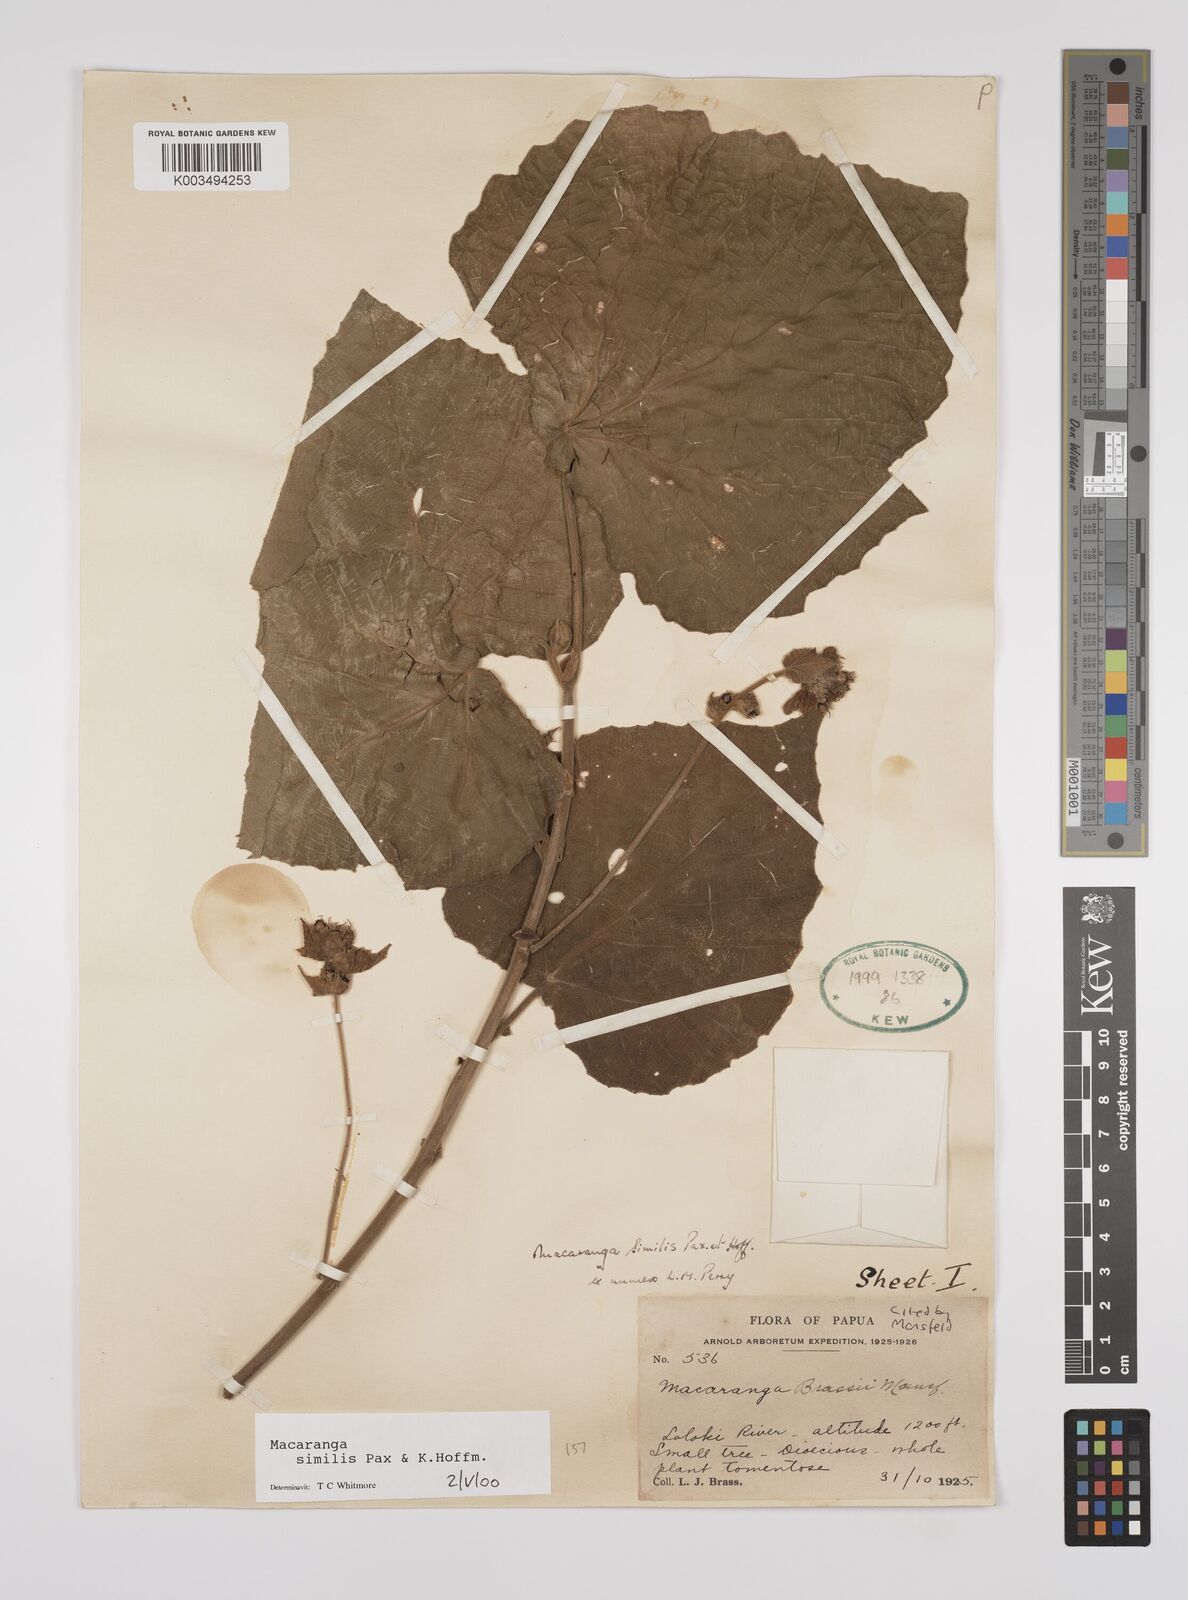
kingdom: Plantae
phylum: Tracheophyta
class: Magnoliopsida
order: Malpighiales
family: Euphorbiaceae
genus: Macaranga
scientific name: Macaranga similis
